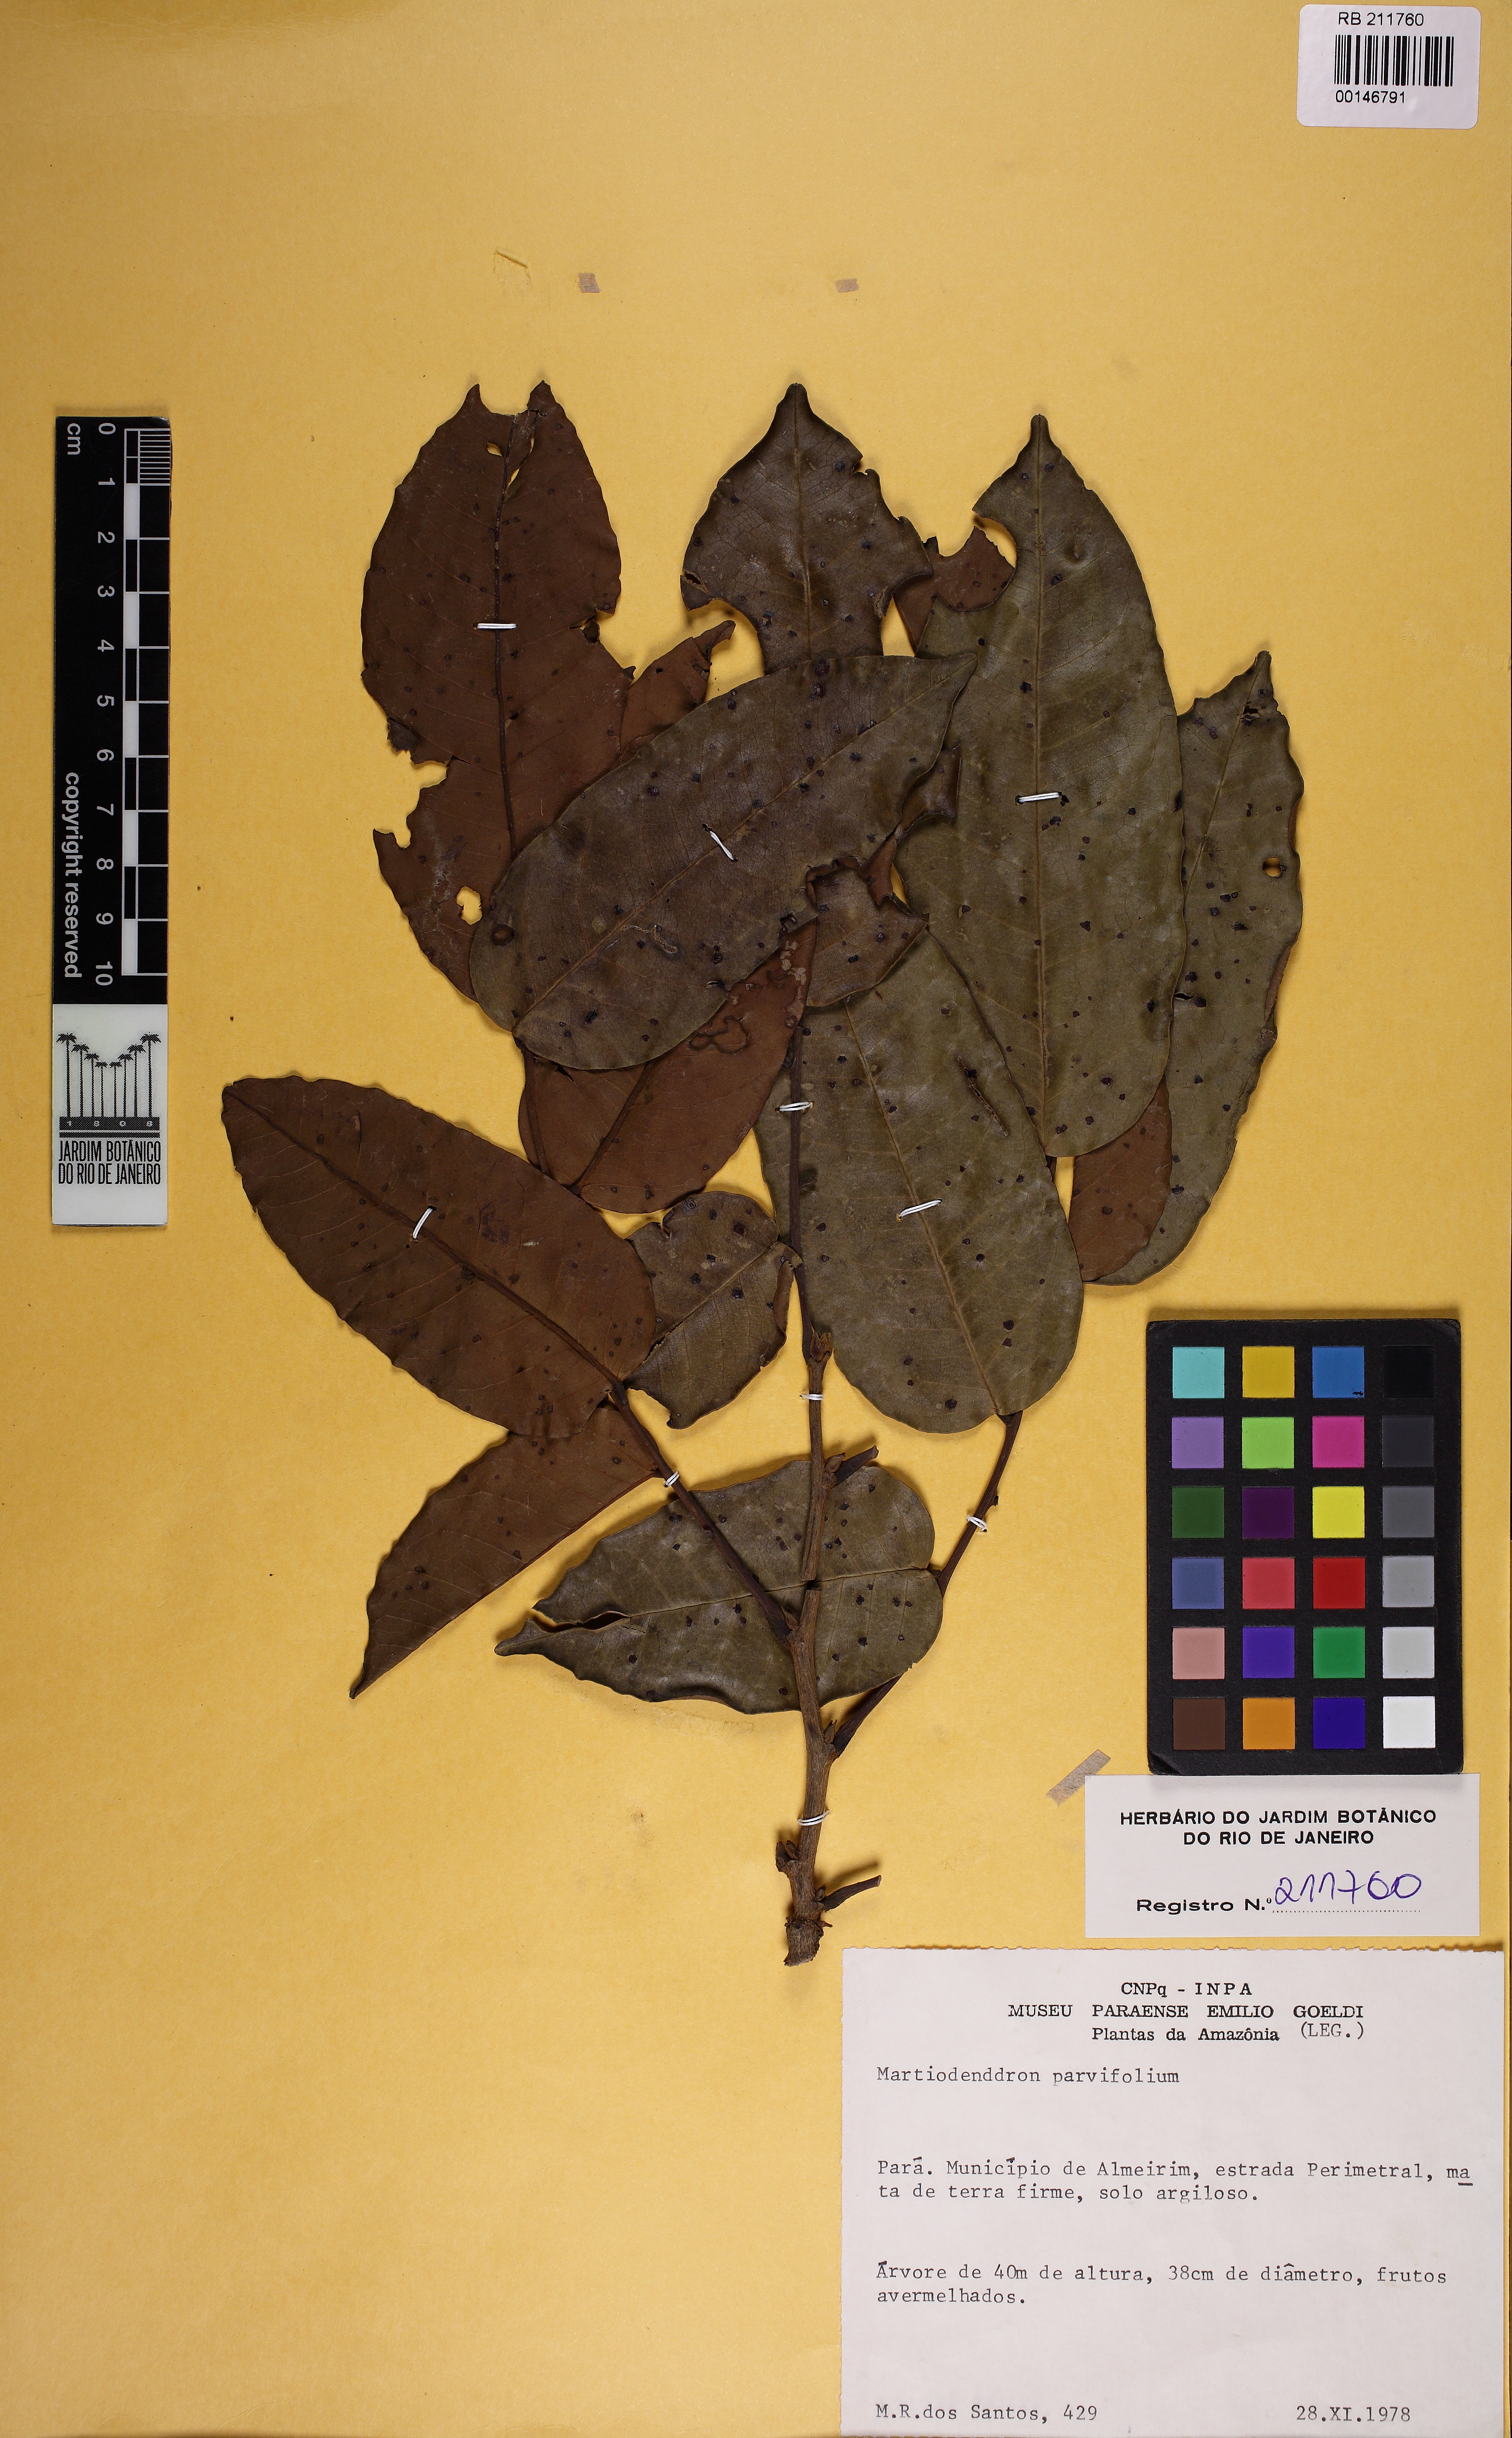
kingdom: Plantae
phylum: Tracheophyta
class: Magnoliopsida
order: Fabales
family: Fabaceae
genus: Martiodendron
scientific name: Martiodendron parviflorum
